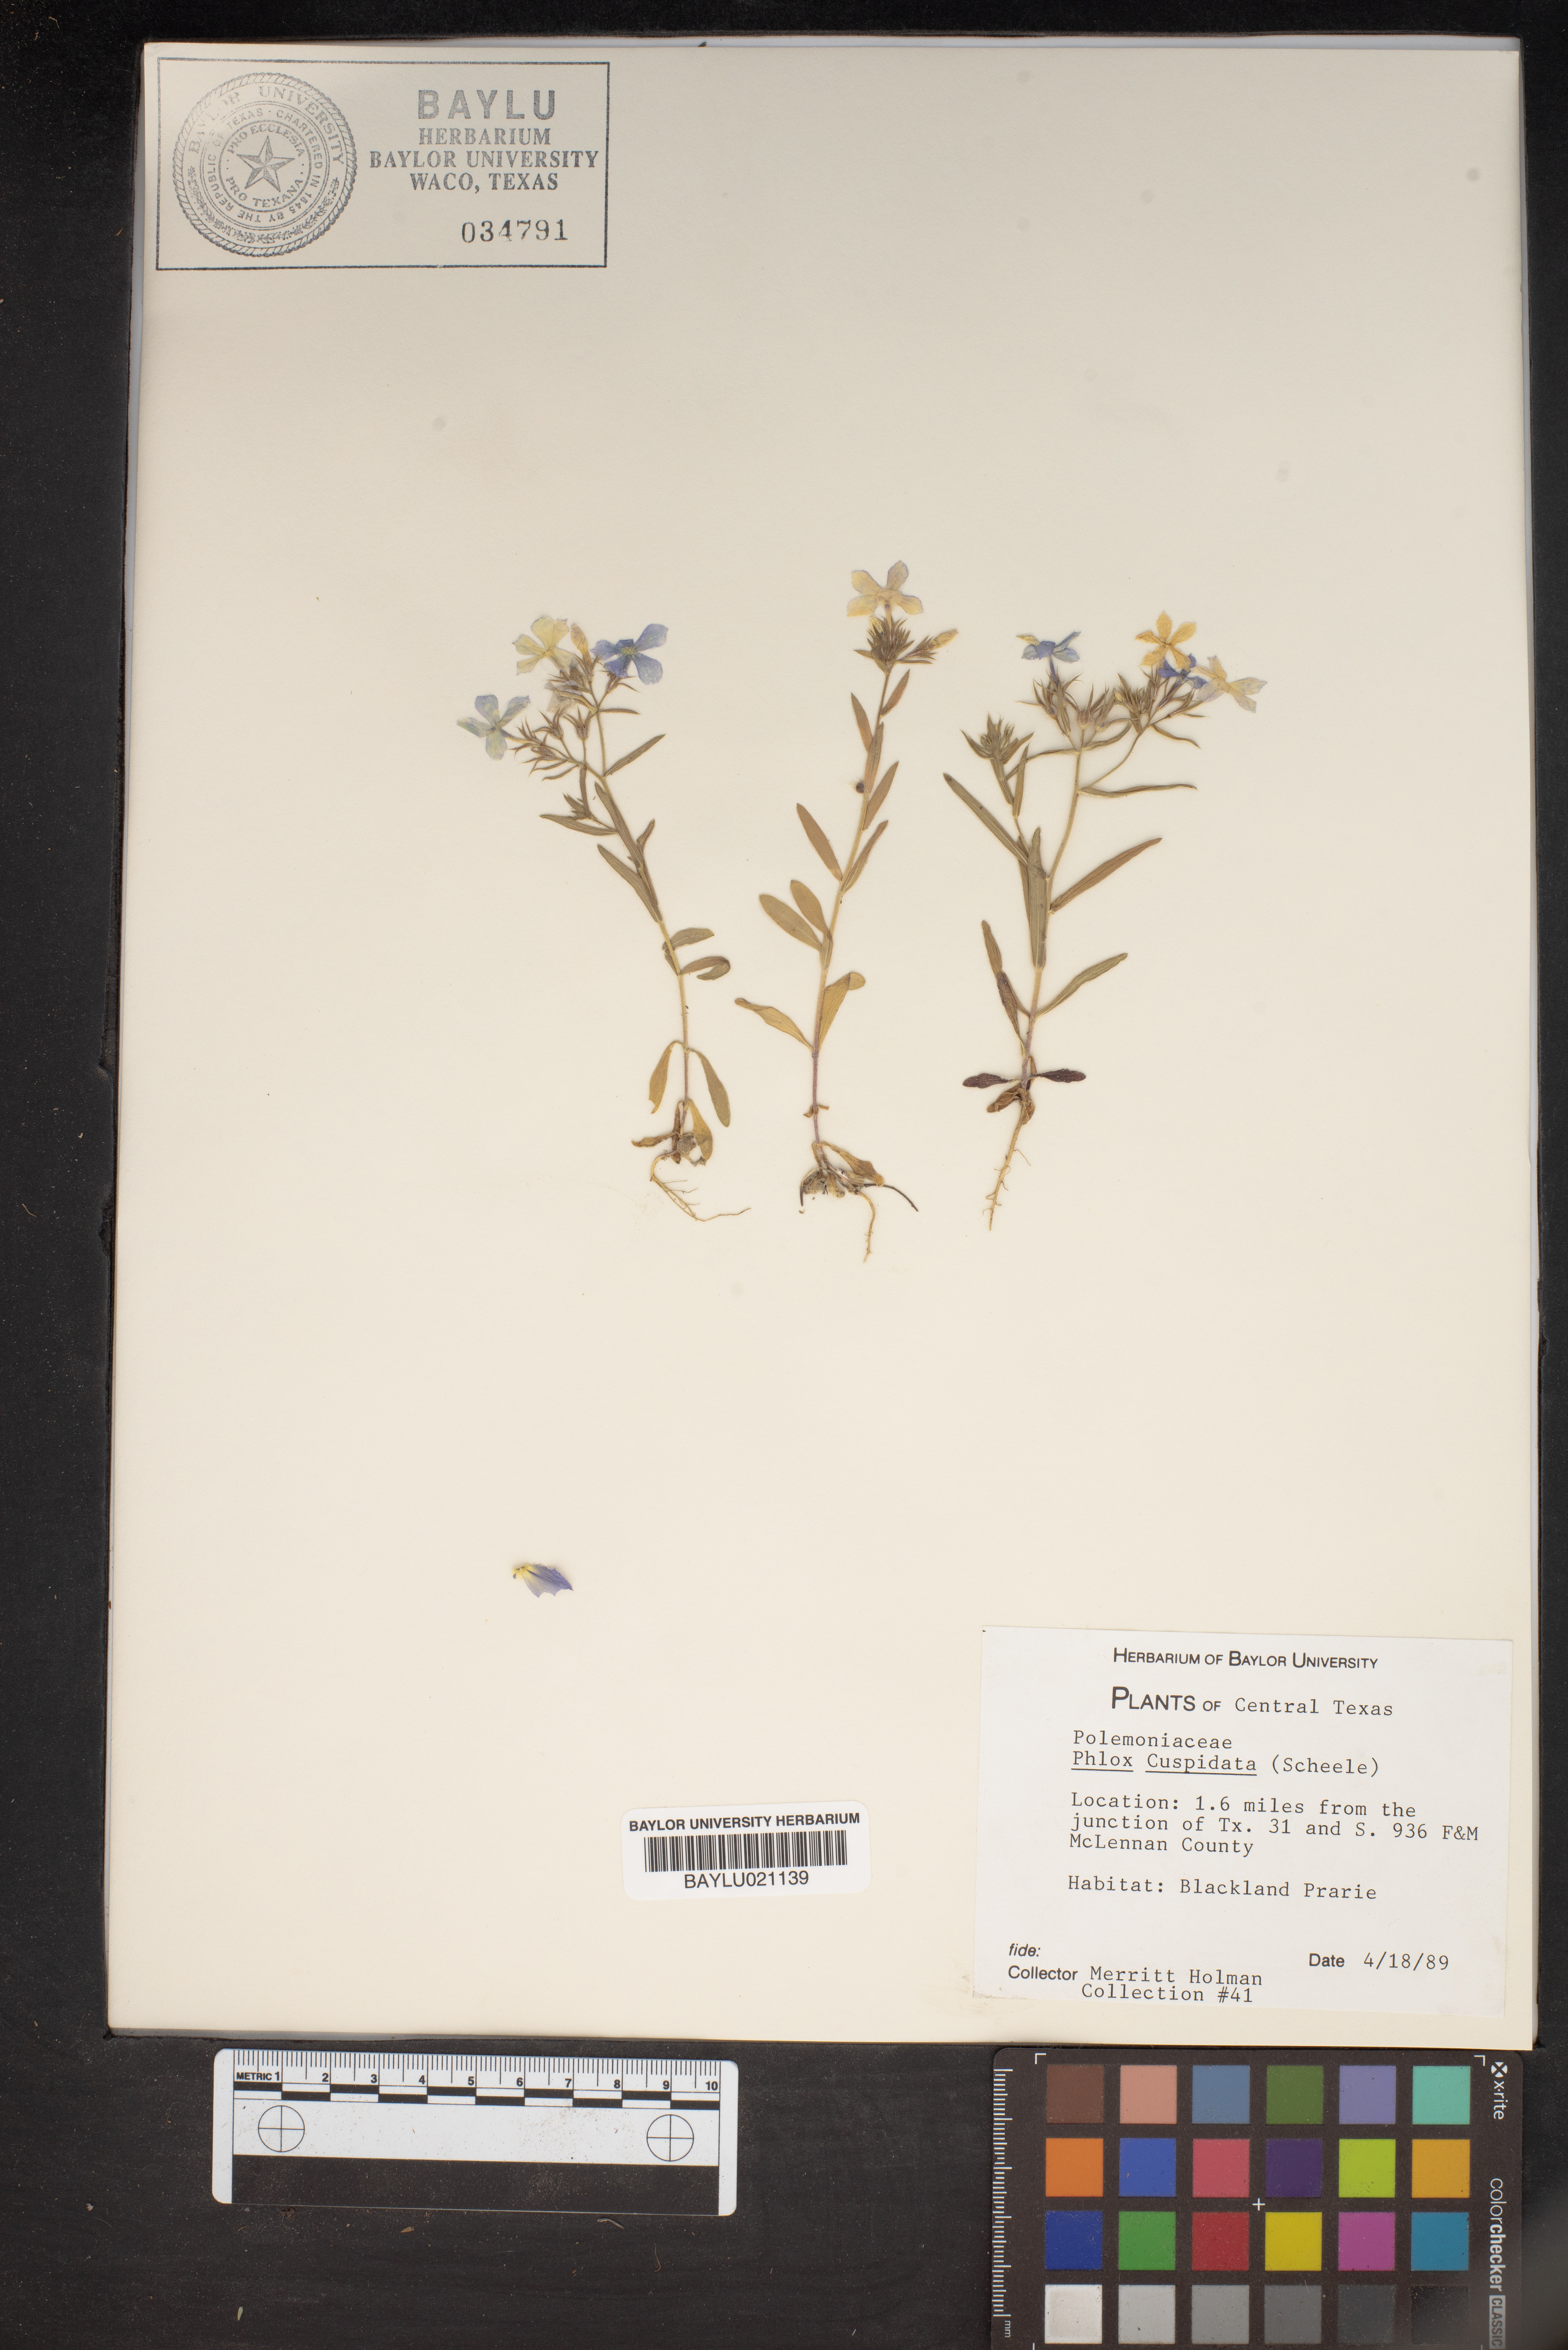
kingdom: Plantae
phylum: Tracheophyta
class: Magnoliopsida
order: Ericales
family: Polemoniaceae
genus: Phlox
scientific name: Phlox cuspidata
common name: Pointed phlox
